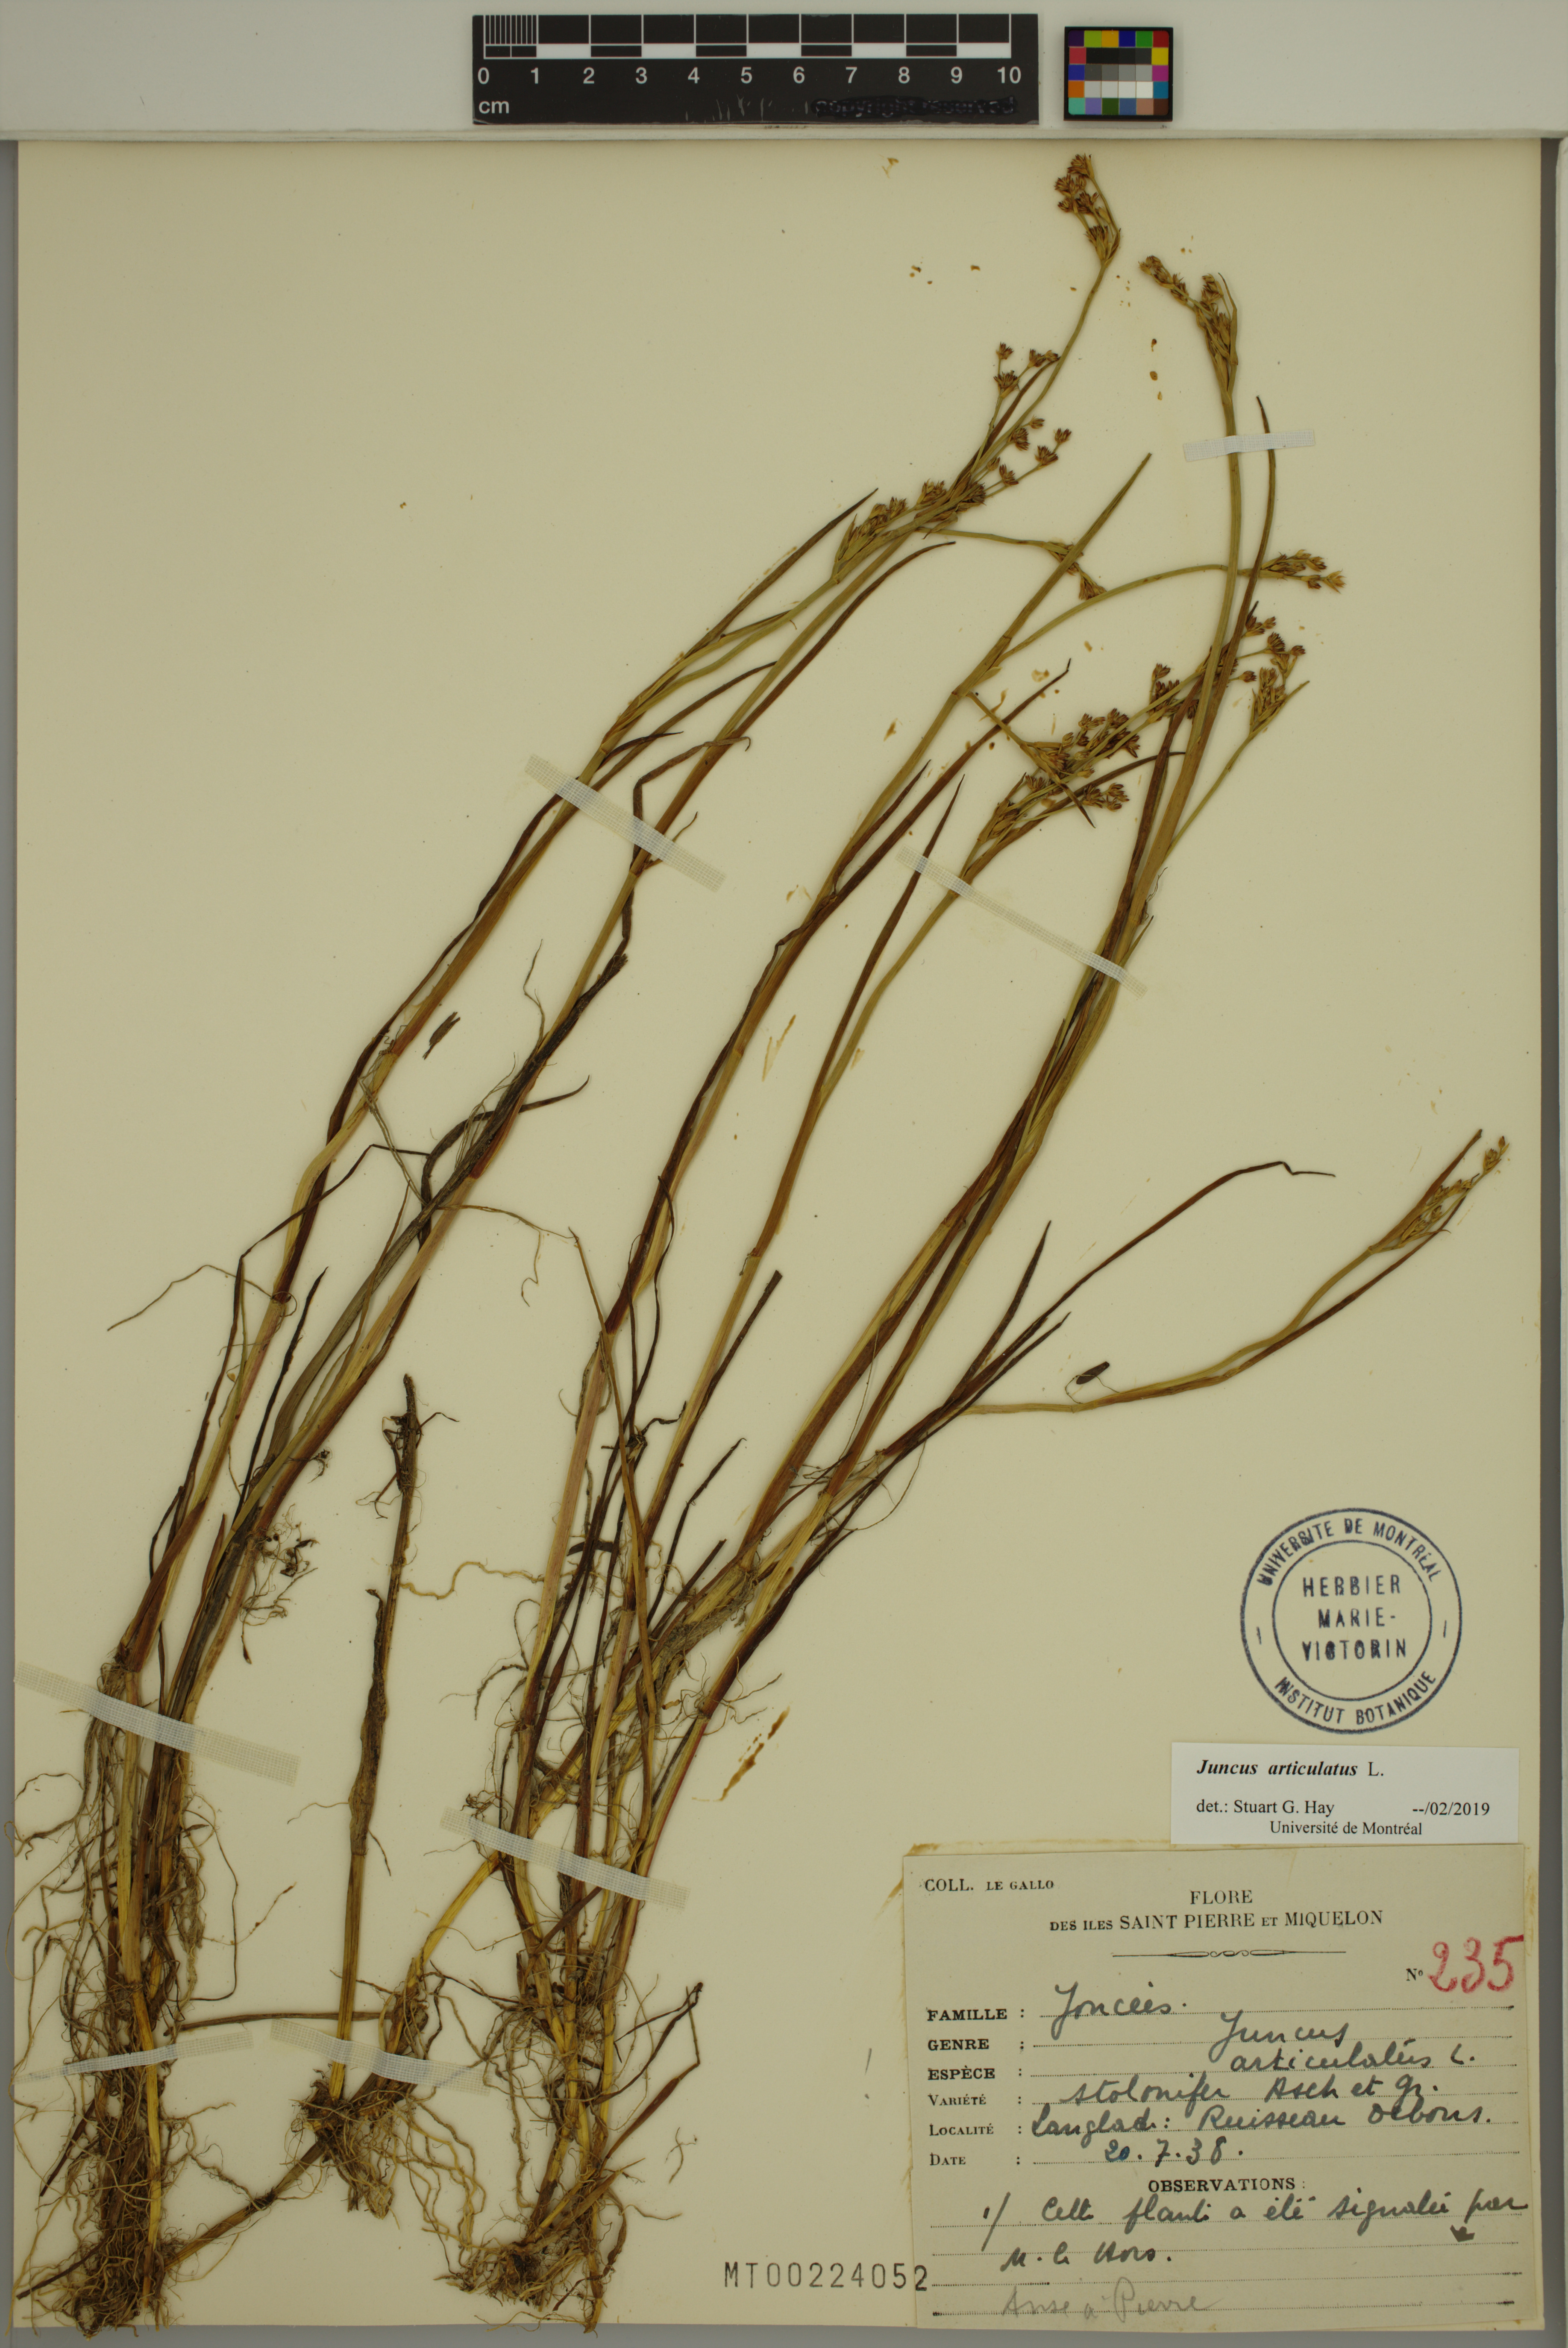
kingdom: Plantae
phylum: Tracheophyta
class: Liliopsida
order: Poales
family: Juncaceae
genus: Juncus
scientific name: Juncus articulatus
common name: Jointed rush
